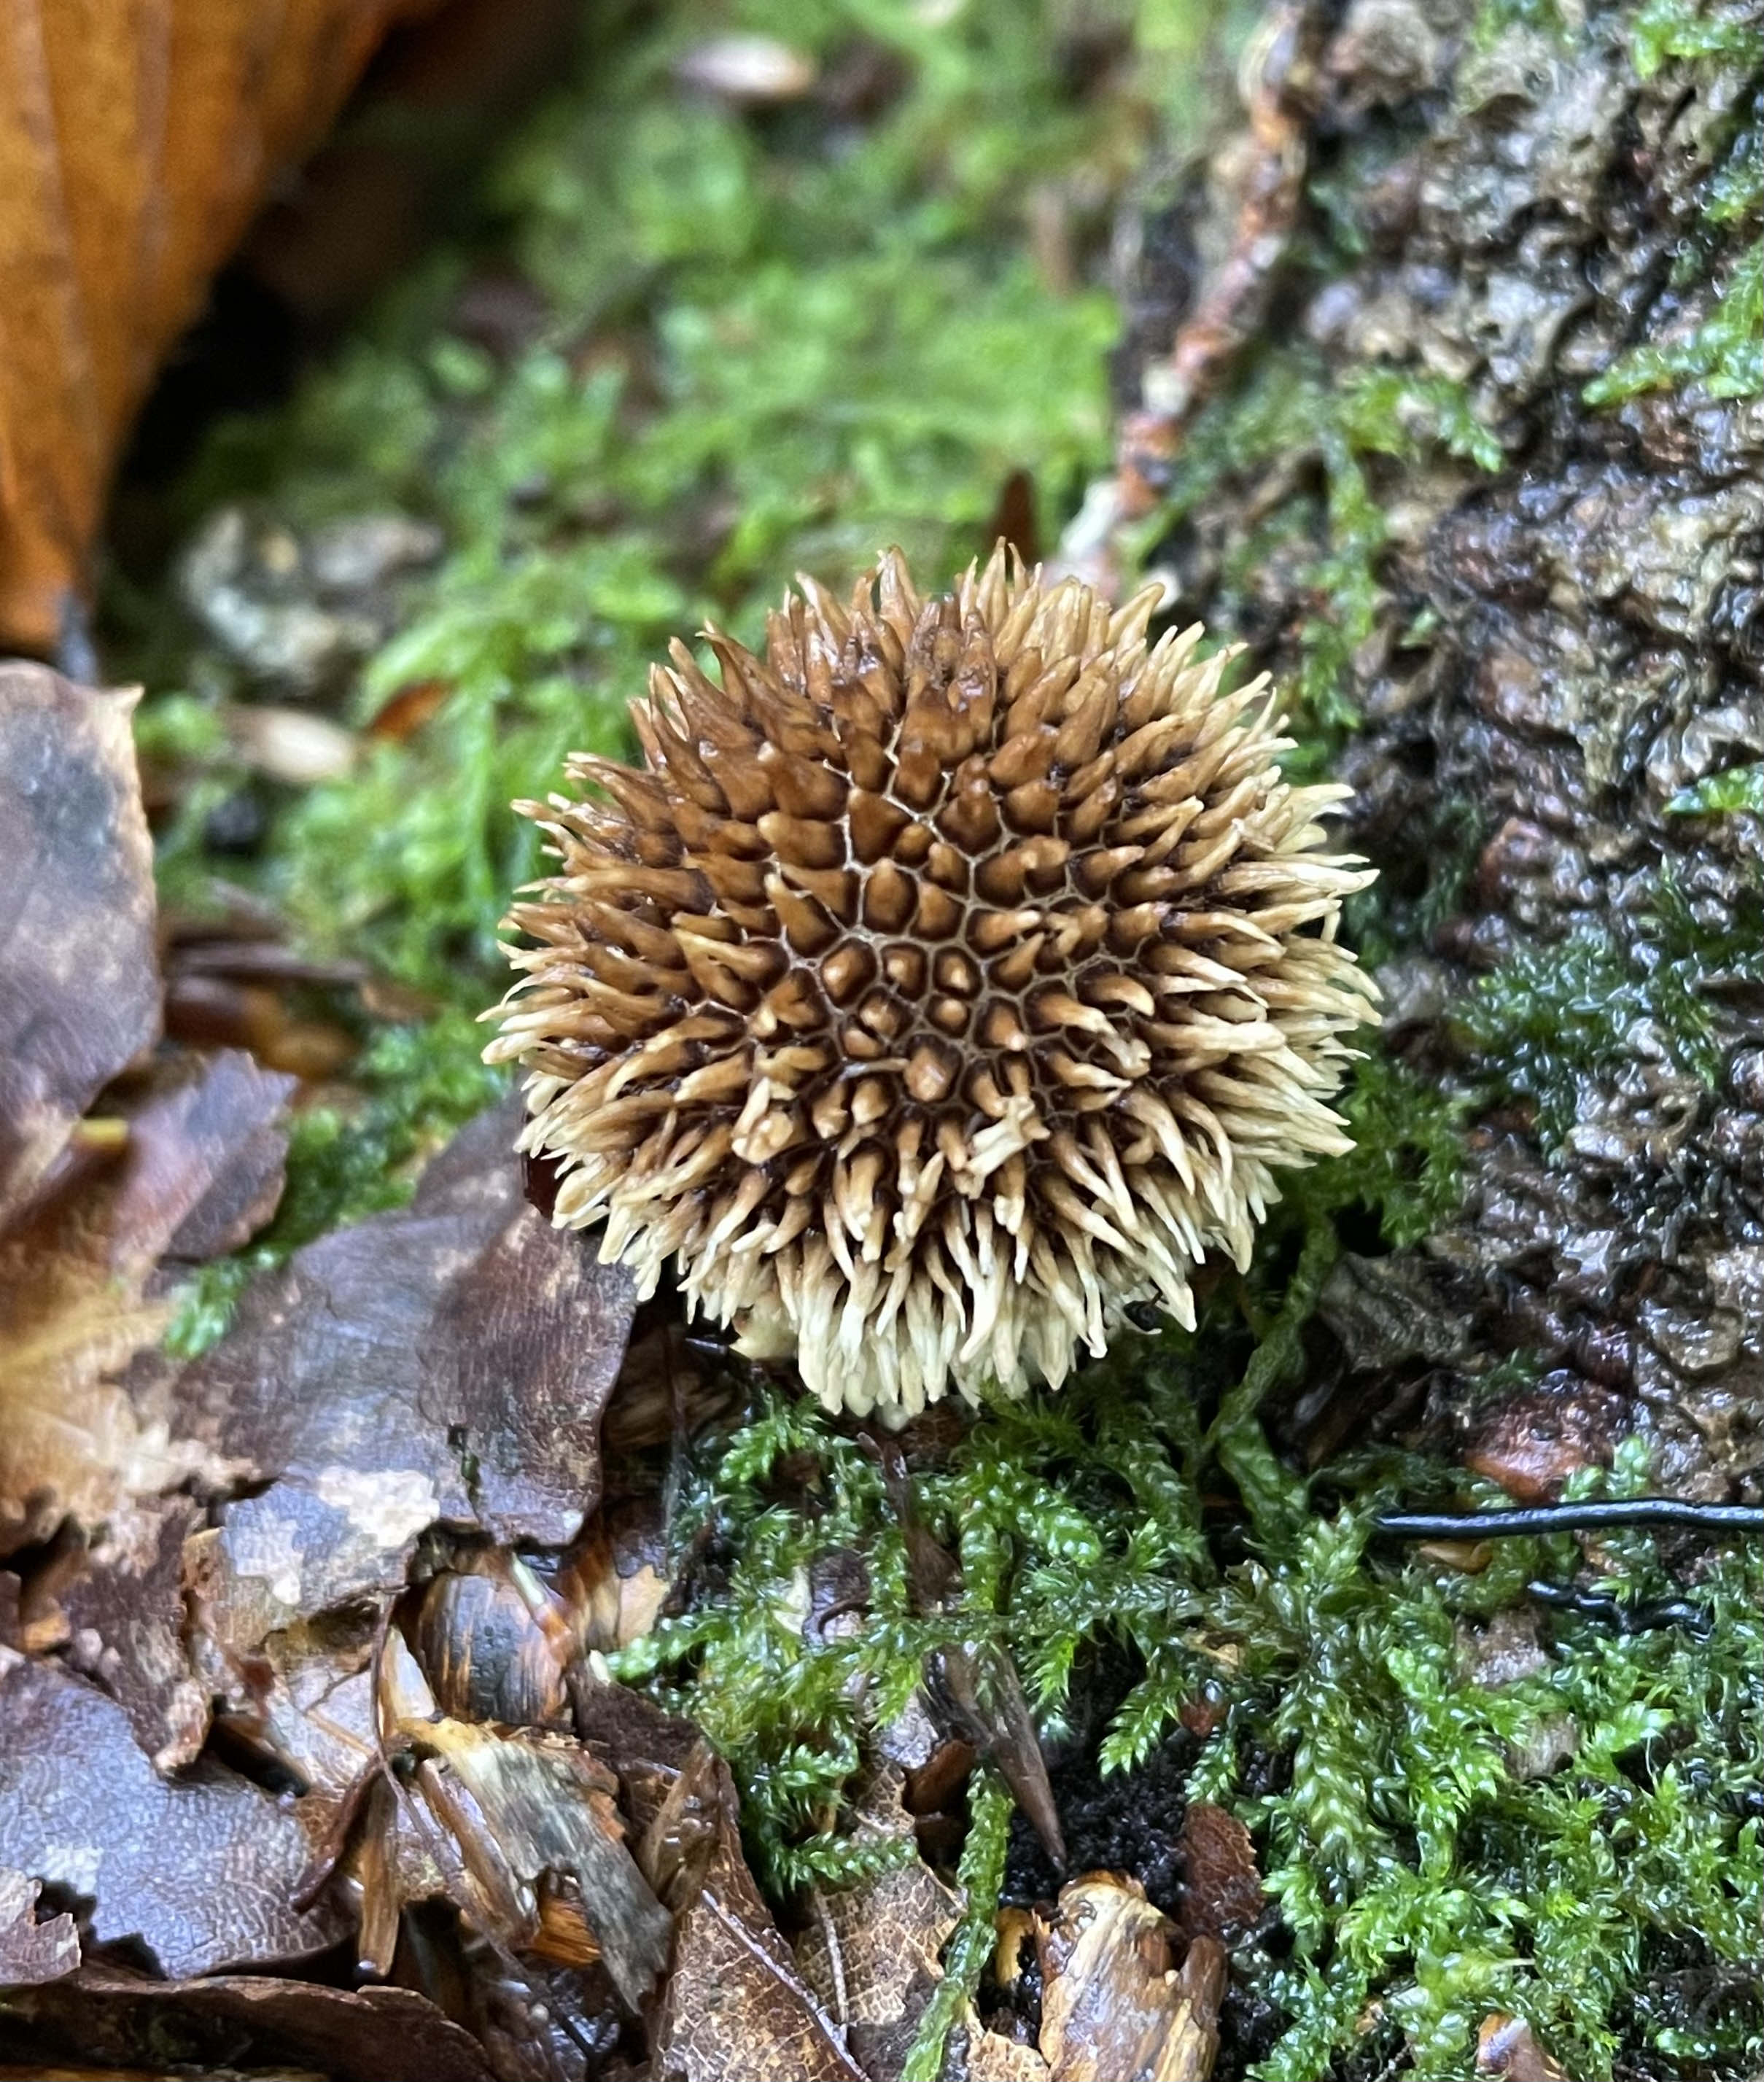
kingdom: Fungi
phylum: Basidiomycota
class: Agaricomycetes
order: Agaricales
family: Lycoperdaceae
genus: Lycoperdon
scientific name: Lycoperdon echinatum
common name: pindsvine-støvbold
